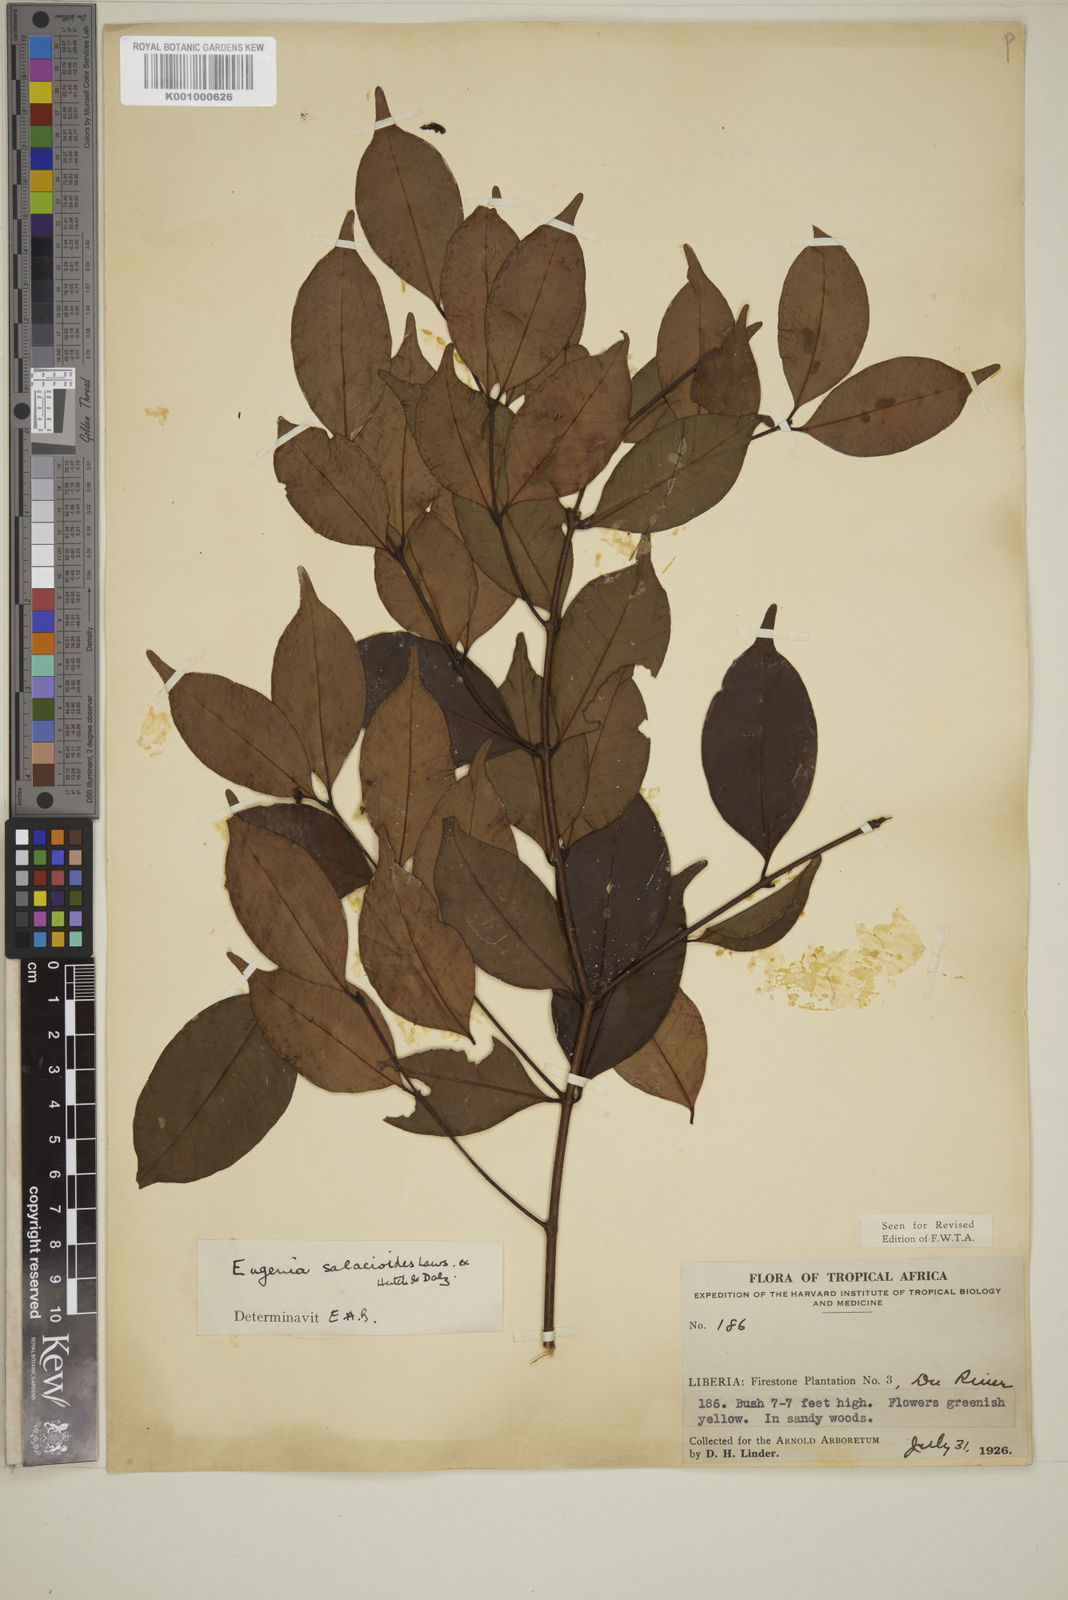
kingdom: Plantae
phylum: Tracheophyta
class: Magnoliopsida
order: Myrtales
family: Myrtaceae
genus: Eugenia
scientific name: Eugenia leonensis
